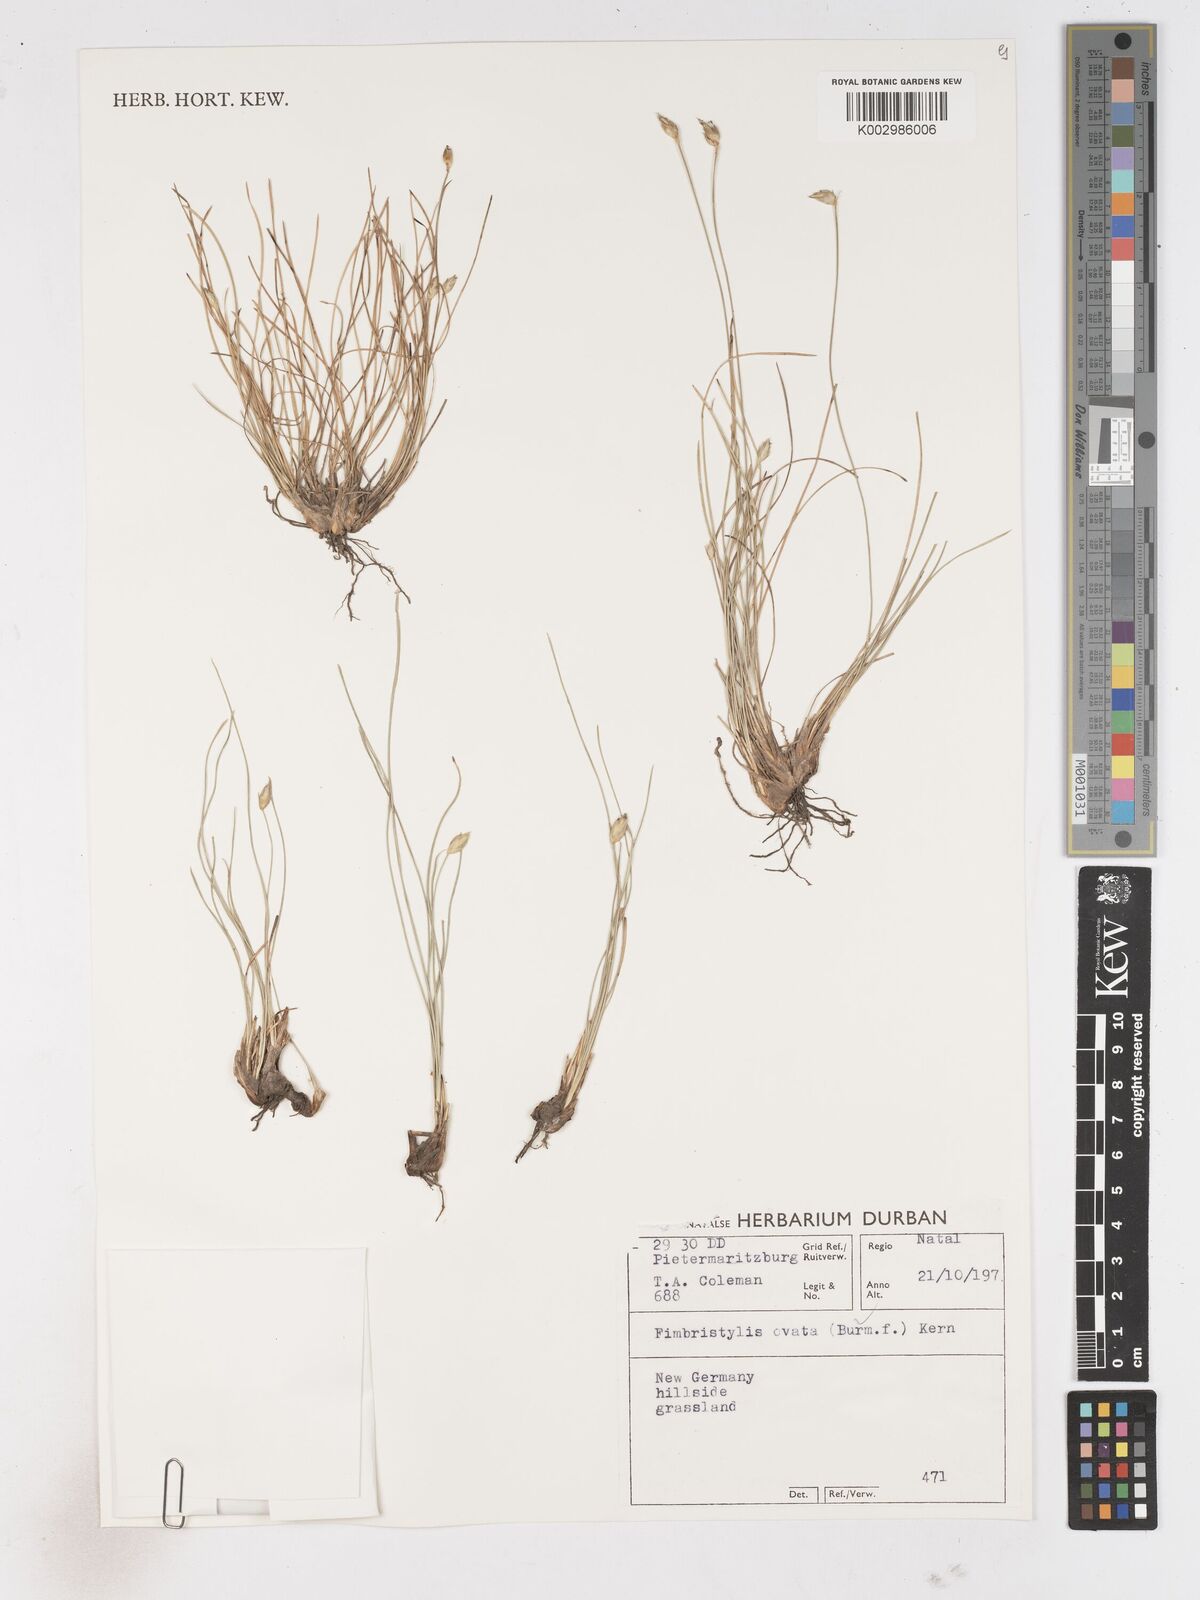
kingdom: Plantae
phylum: Tracheophyta
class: Liliopsida
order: Poales
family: Cyperaceae
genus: Abildgaardia
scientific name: Abildgaardia ovata
